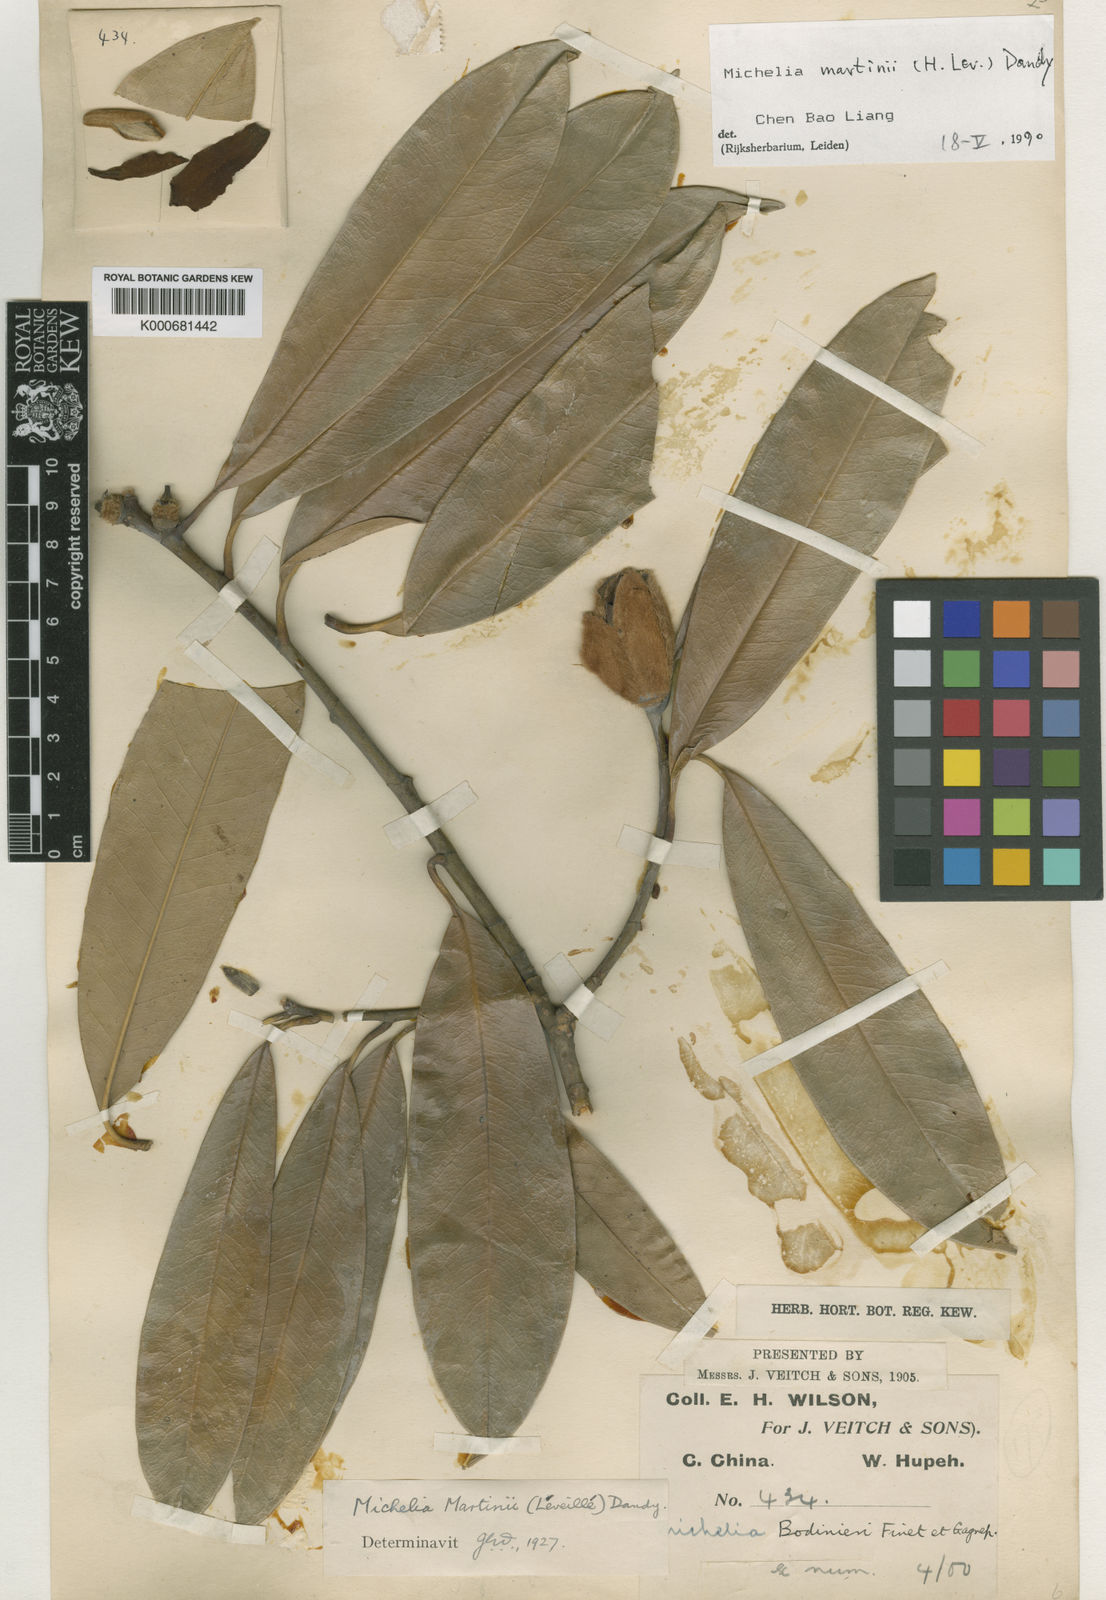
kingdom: Plantae
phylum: Tracheophyta
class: Magnoliopsida
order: Magnoliales
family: Magnoliaceae
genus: Magnolia
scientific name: Magnolia
